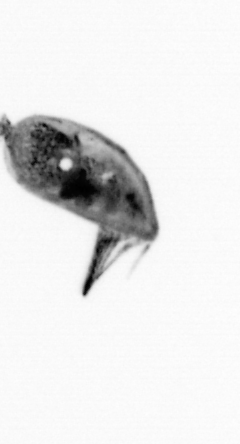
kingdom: Animalia
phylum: Arthropoda
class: Maxillopoda
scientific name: Maxillopoda
